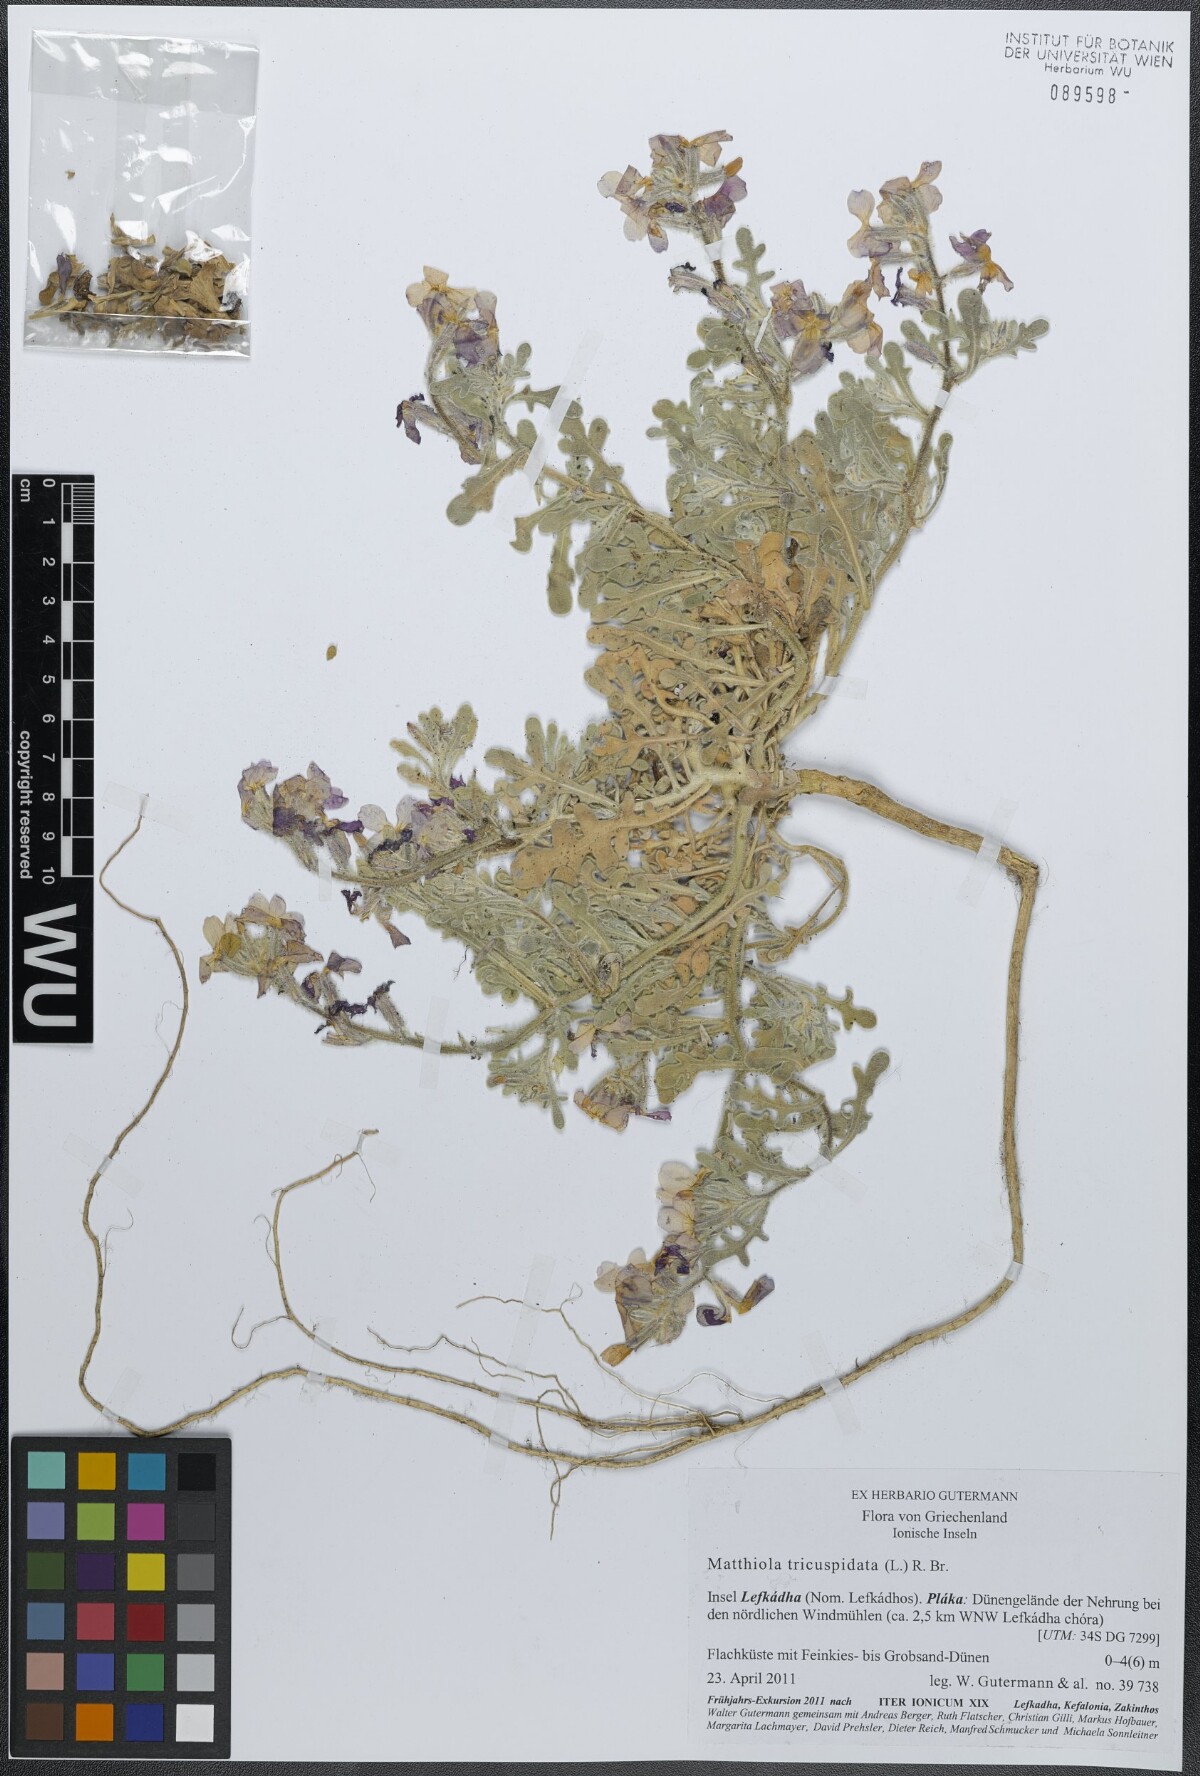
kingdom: Plantae
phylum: Tracheophyta
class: Magnoliopsida
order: Brassicales
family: Brassicaceae
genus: Matthiola
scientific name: Matthiola tricuspidata
